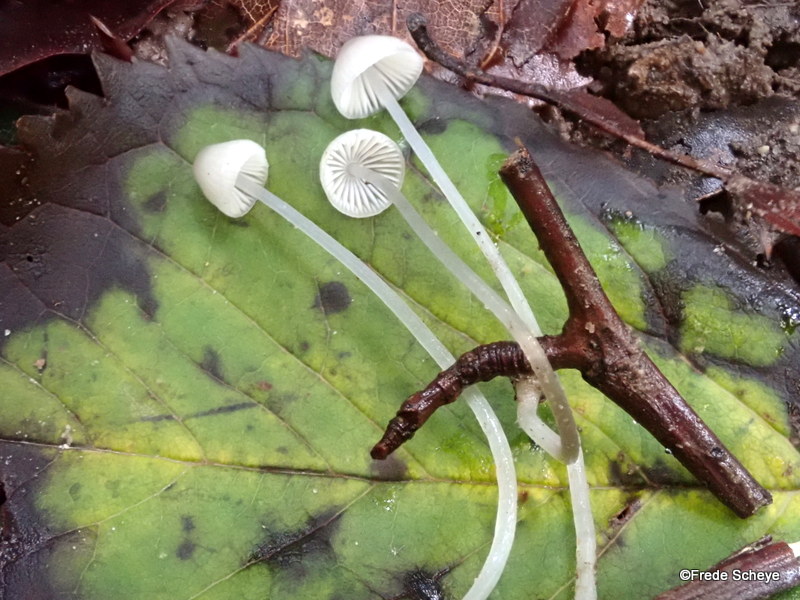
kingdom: Fungi
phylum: Basidiomycota
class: Agaricomycetes
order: Agaricales
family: Mycenaceae
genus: Mycena
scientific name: Mycena vitilis
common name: blankstokket huesvamp
